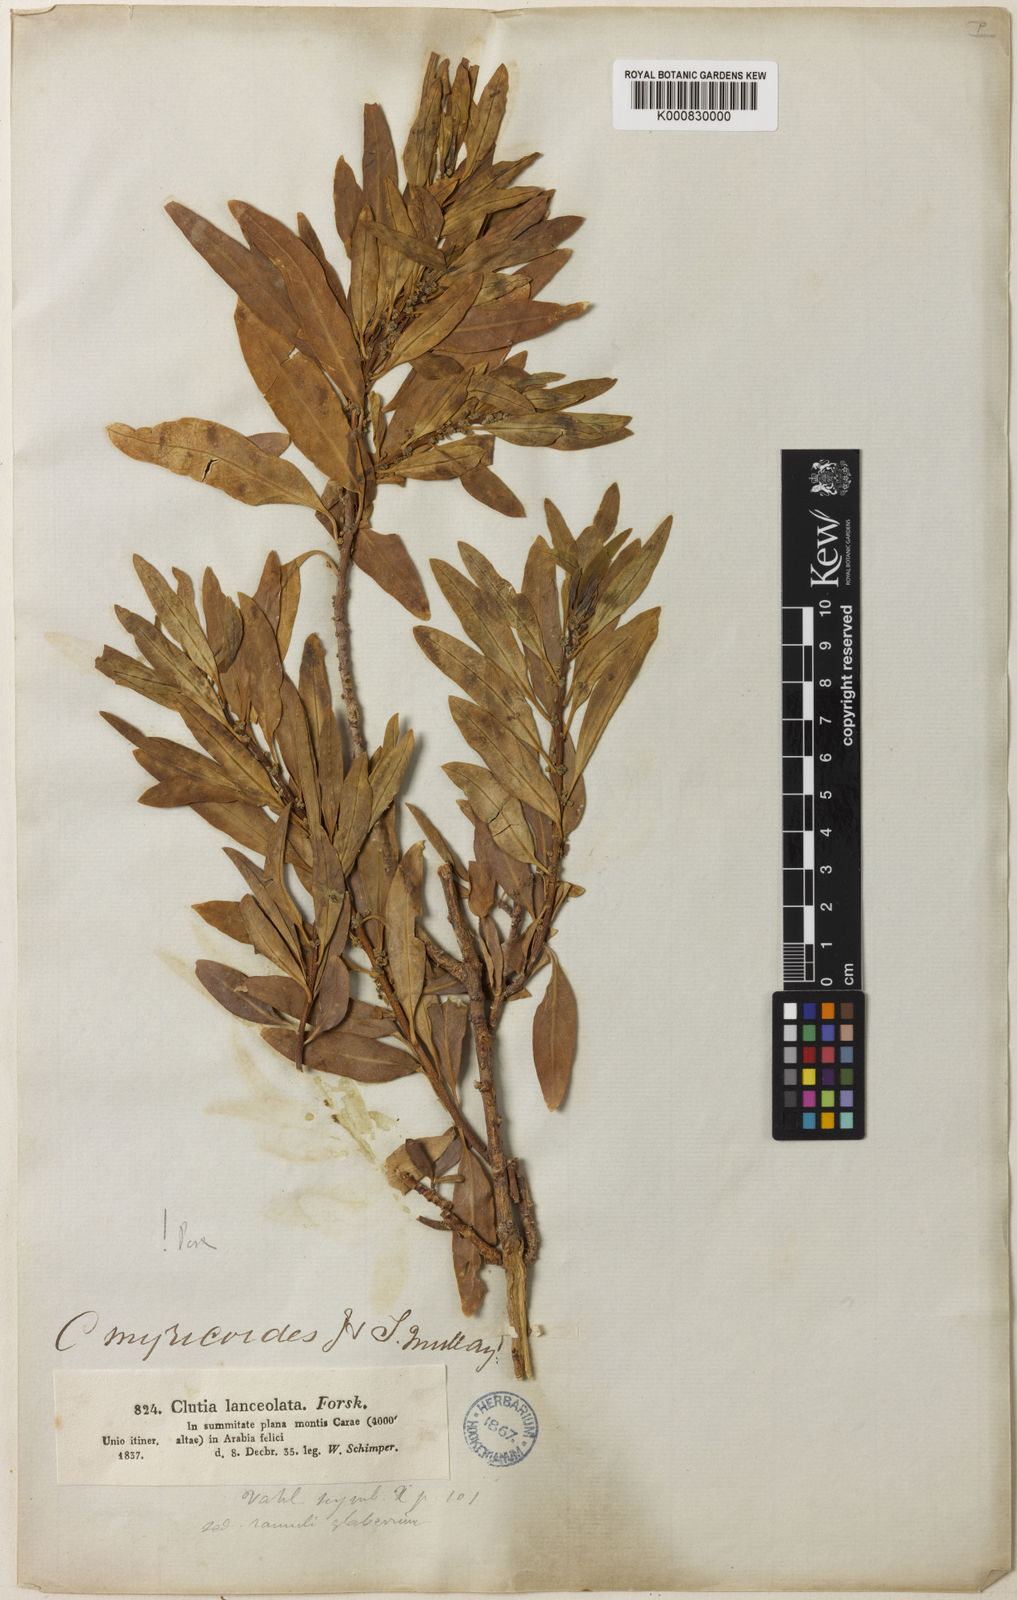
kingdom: Plantae
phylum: Tracheophyta
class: Magnoliopsida
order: Malpighiales
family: Peraceae
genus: Clutia
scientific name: Clutia lanceolata
